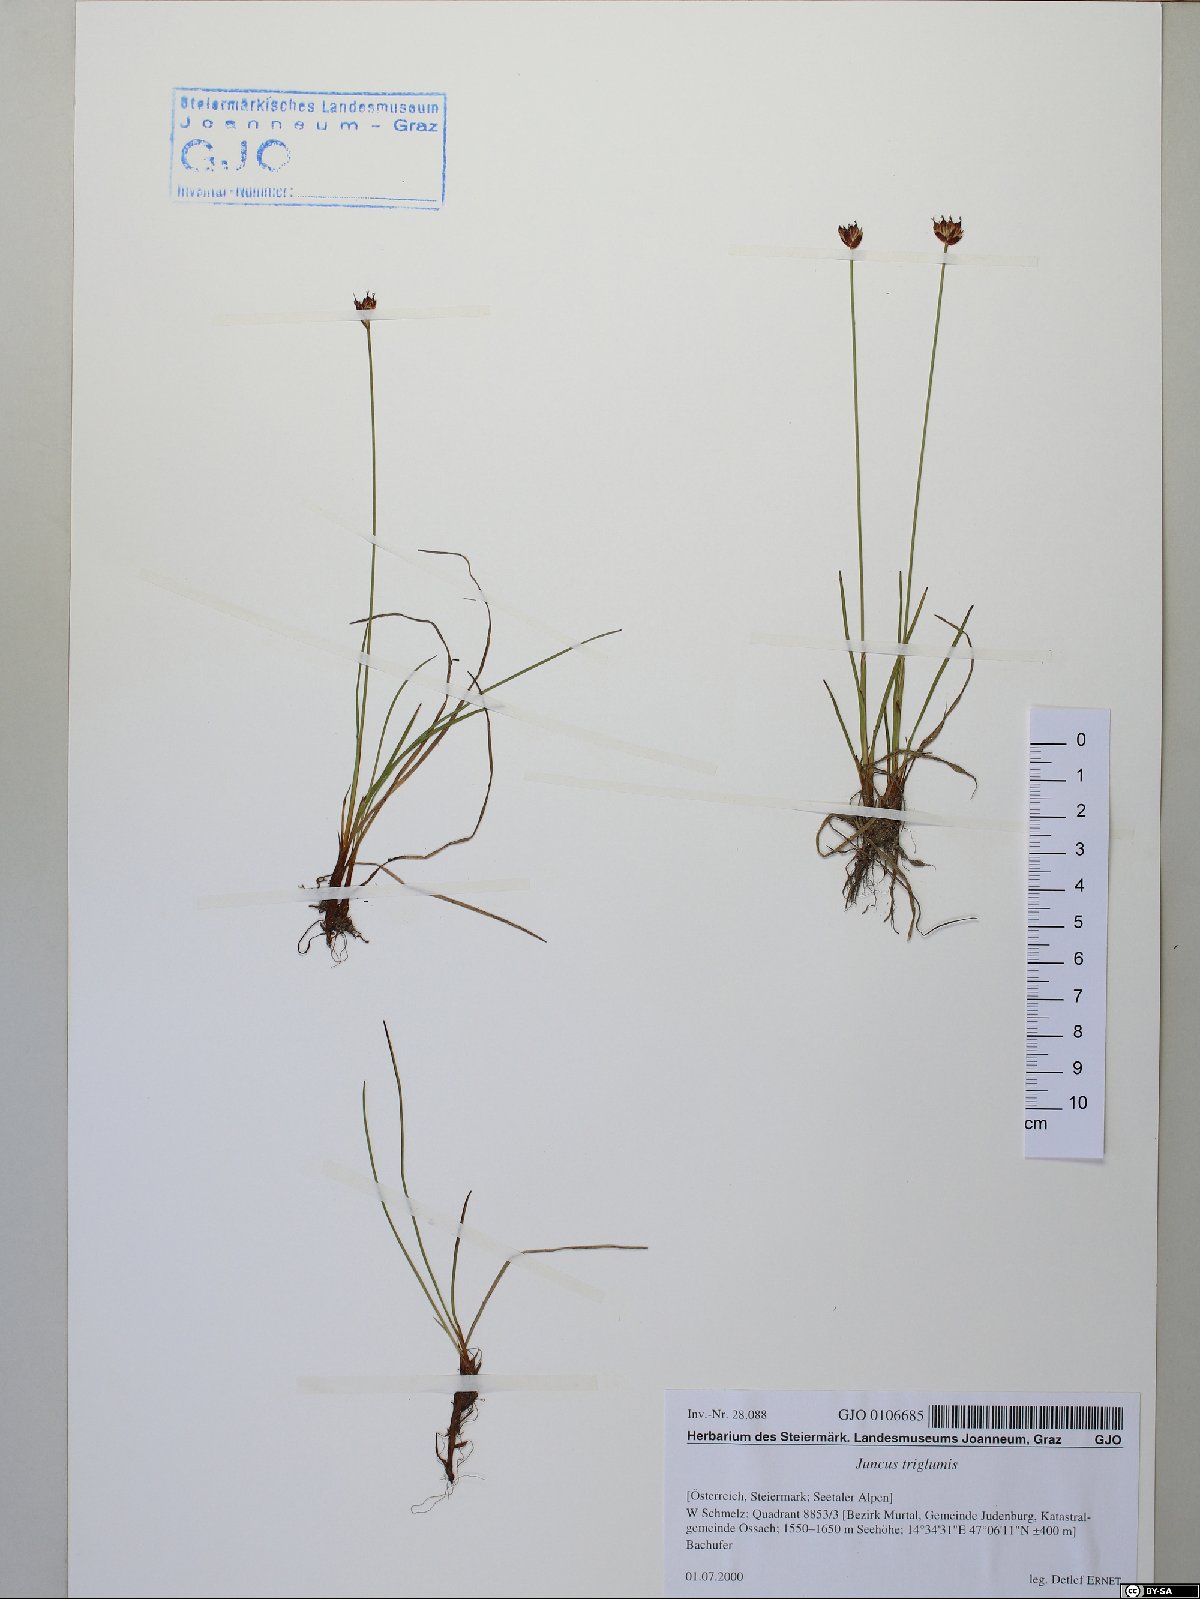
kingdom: Plantae
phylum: Tracheophyta
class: Liliopsida
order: Poales
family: Juncaceae
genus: Juncus
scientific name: Juncus triglumis
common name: Three-flowered rush
